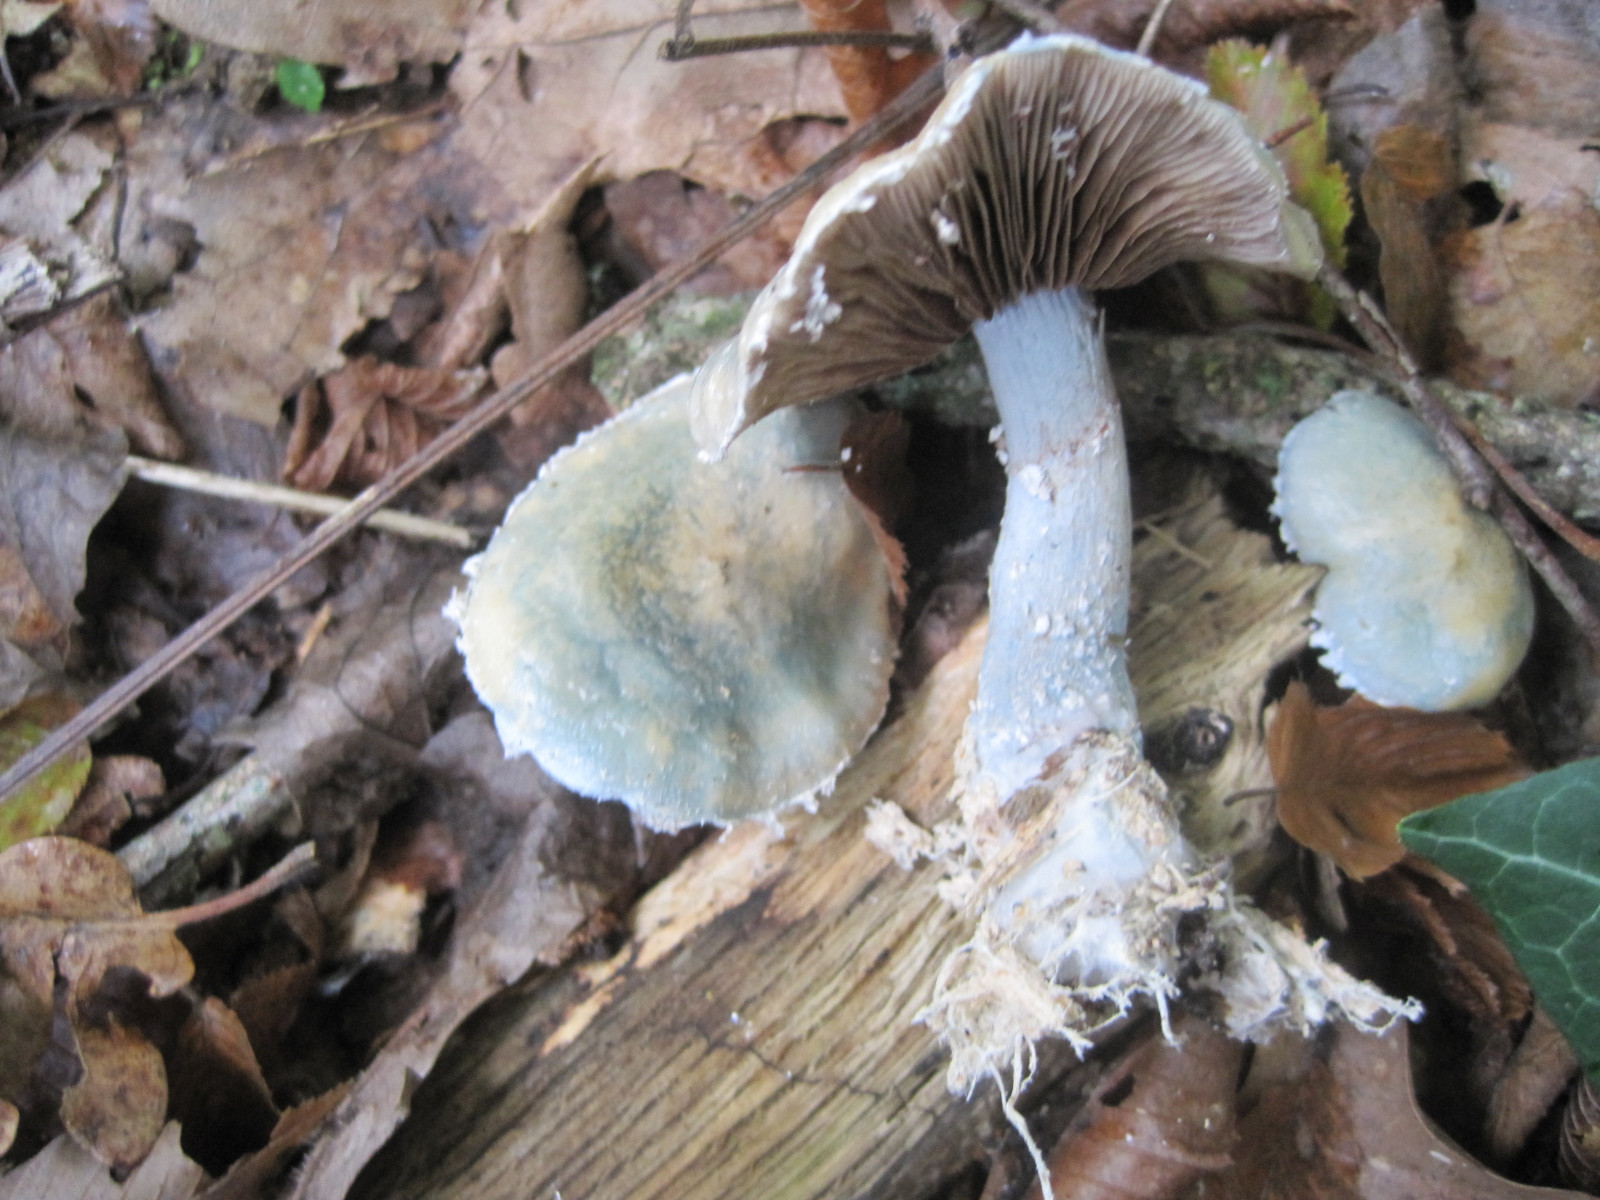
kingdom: Fungi
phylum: Basidiomycota
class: Agaricomycetes
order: Agaricales
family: Strophariaceae
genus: Stropharia
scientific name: Stropharia cyanea
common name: blågrøn bredblad
